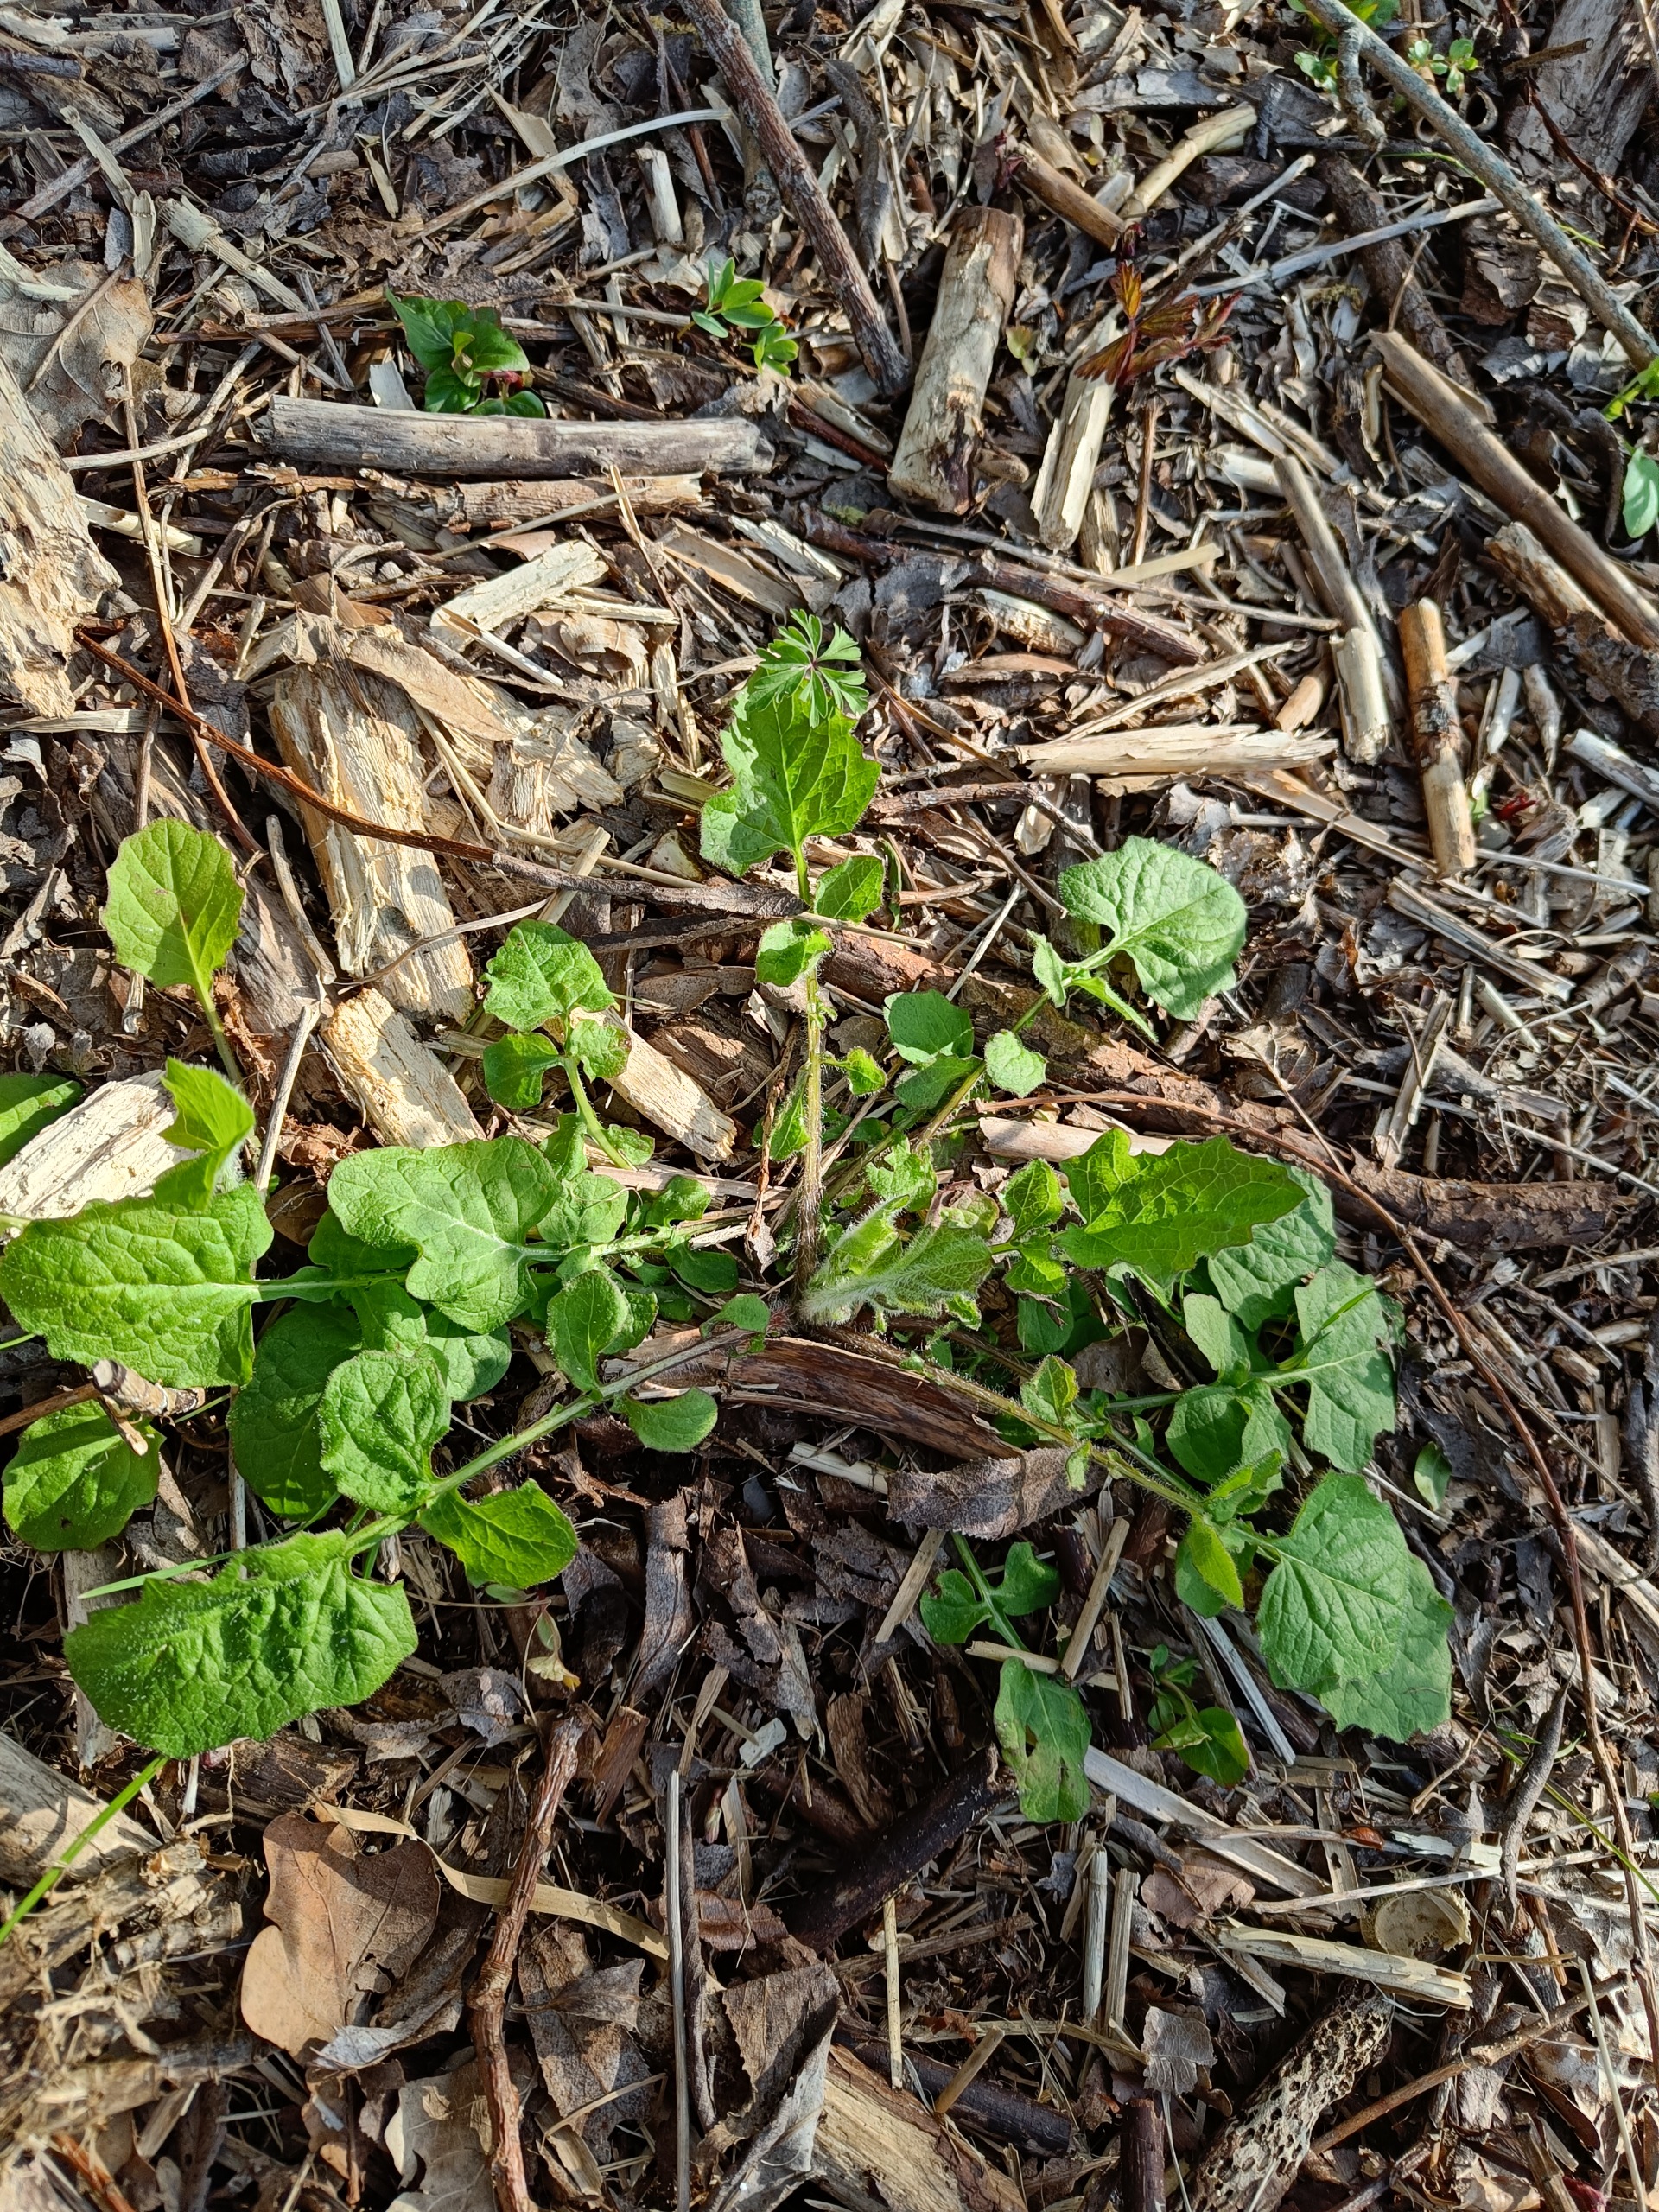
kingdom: Plantae
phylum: Tracheophyta
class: Magnoliopsida
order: Asterales
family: Asteraceae
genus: Lapsana
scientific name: Lapsana communis
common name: Haremad
